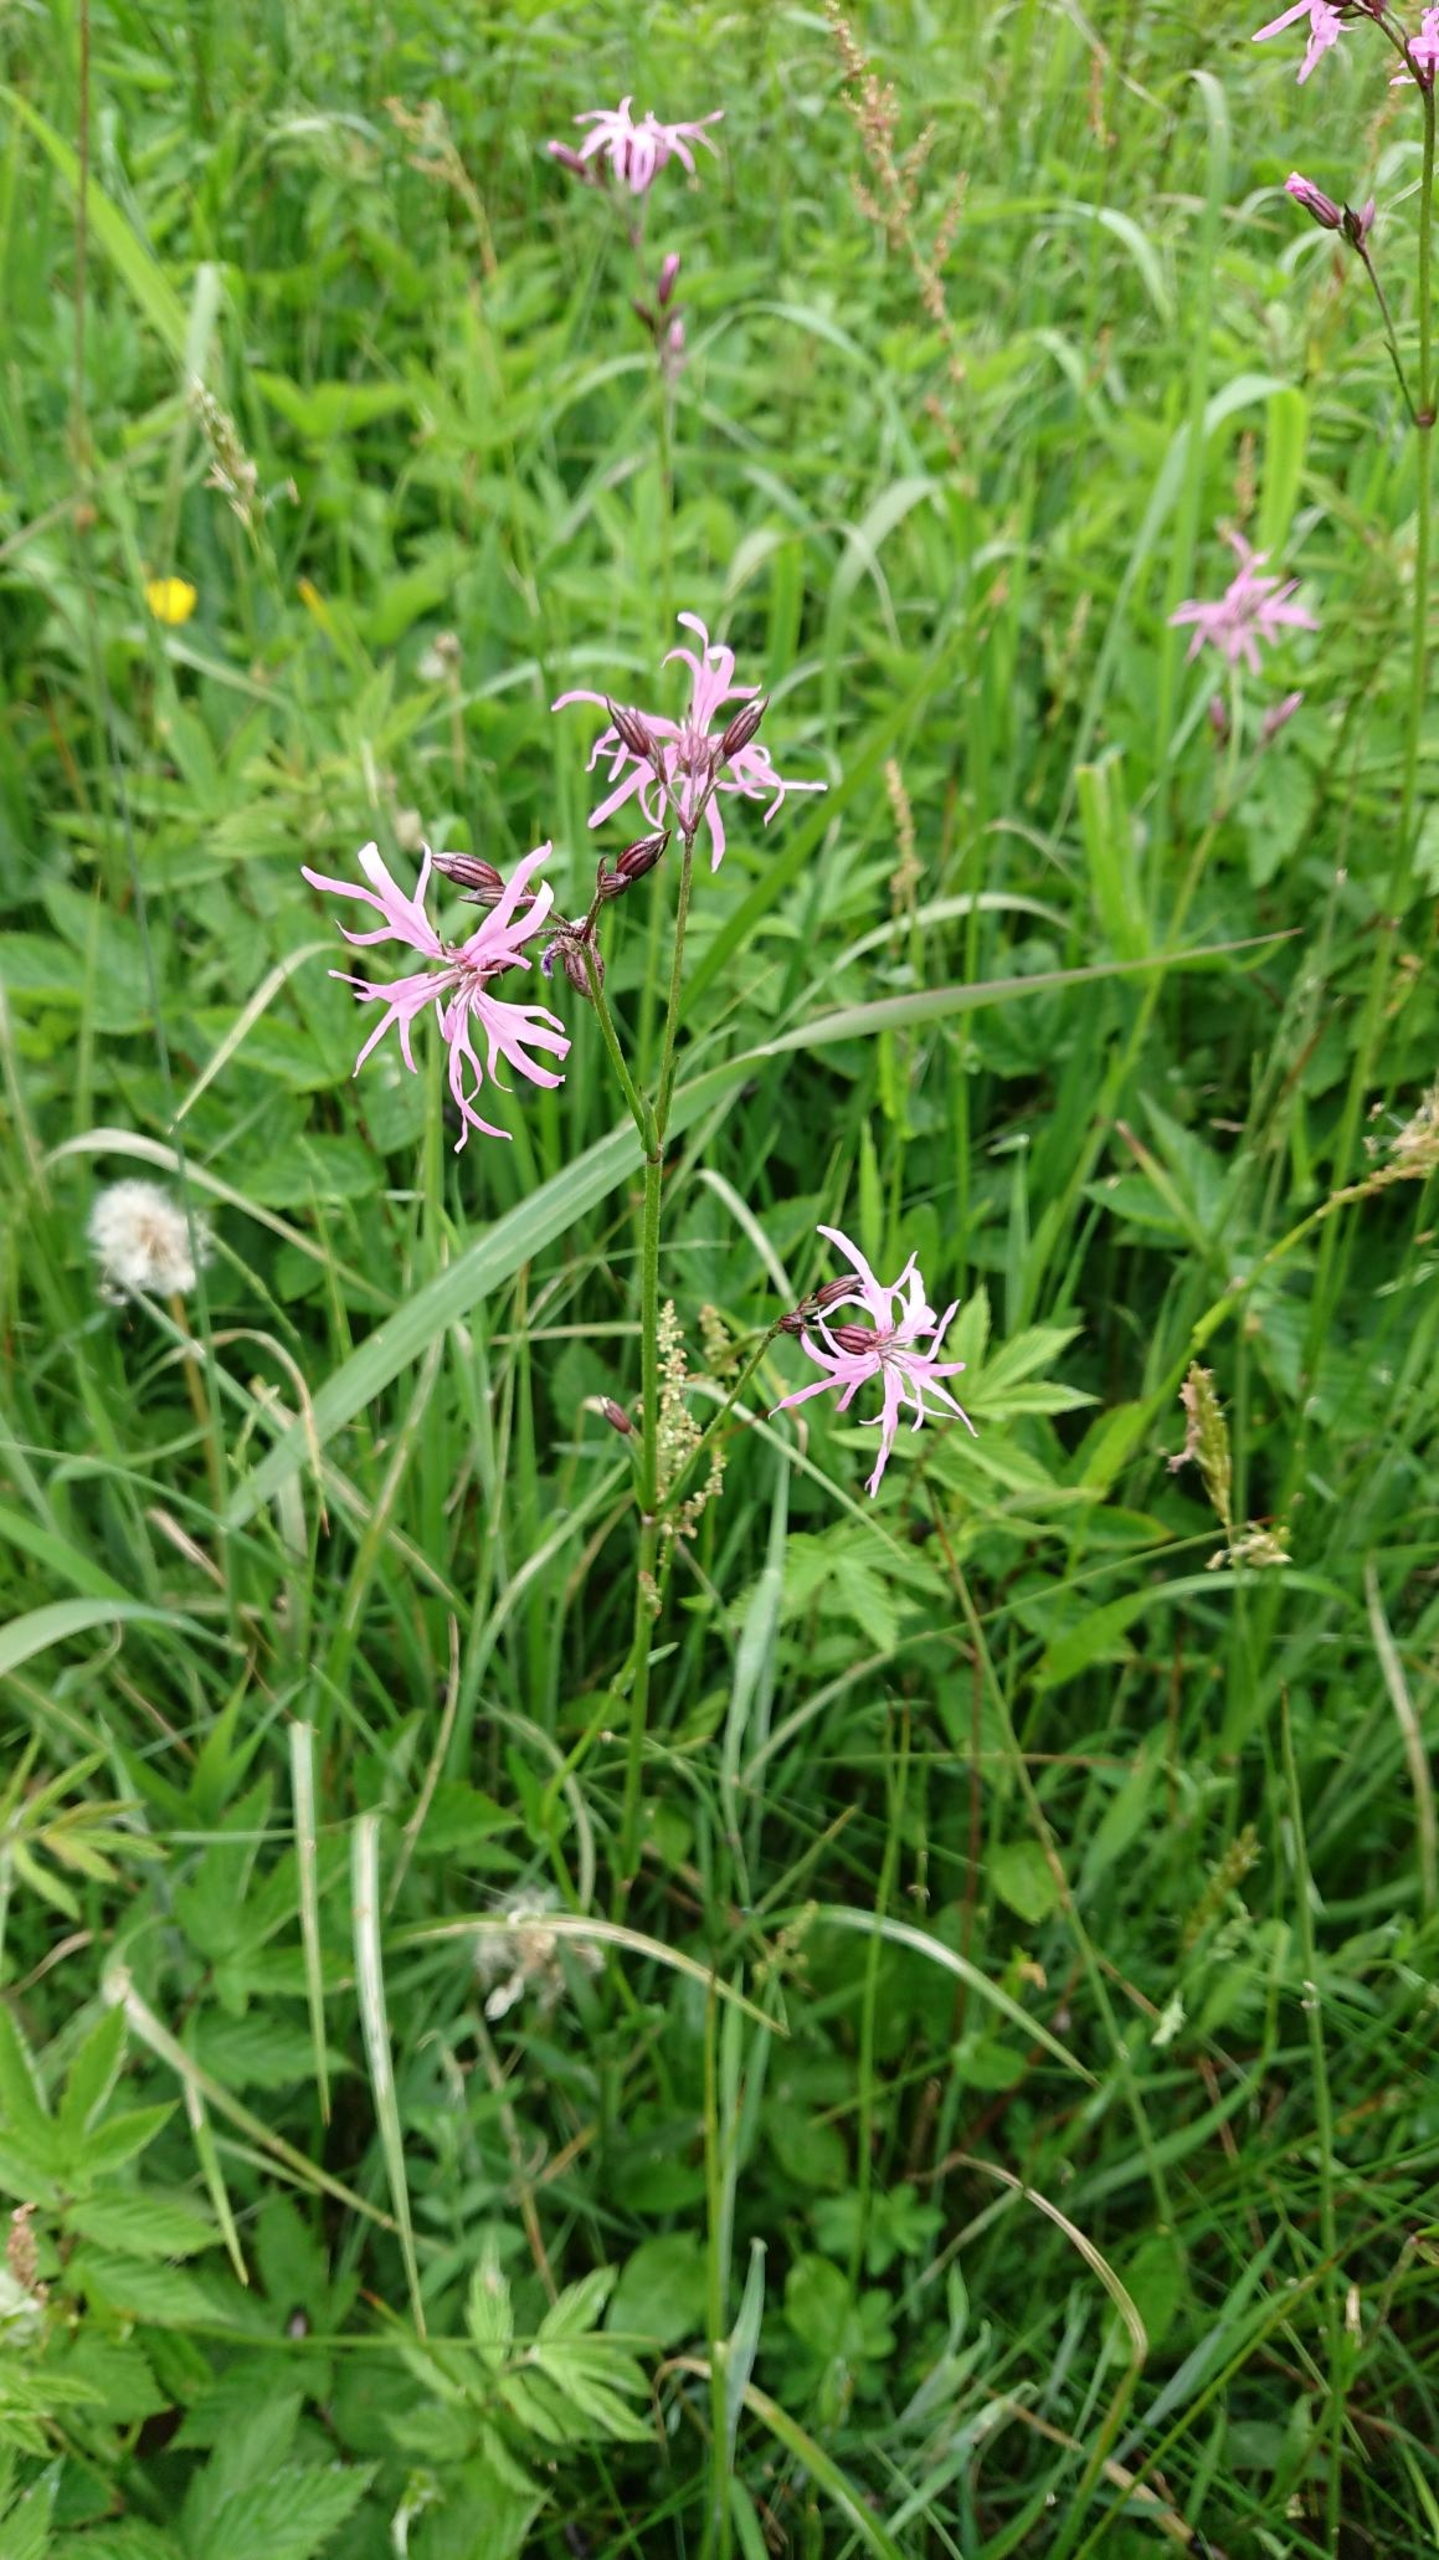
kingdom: Plantae
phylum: Tracheophyta
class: Magnoliopsida
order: Caryophyllales
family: Caryophyllaceae
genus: Silene
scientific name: Silene flos-cuculi
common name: Trævlekrone
